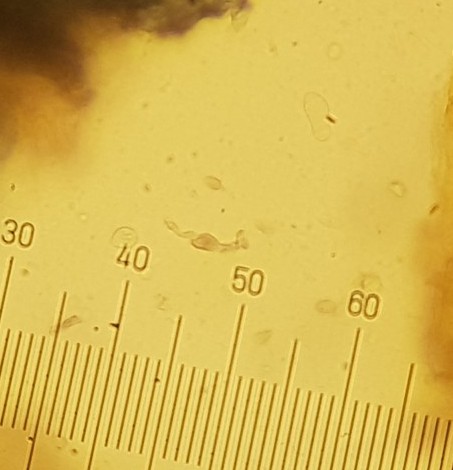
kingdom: Fungi
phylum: Ascomycota
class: Sordariomycetes
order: Hypocreales
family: Nectriaceae
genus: Fusarium
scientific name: Fusarium
